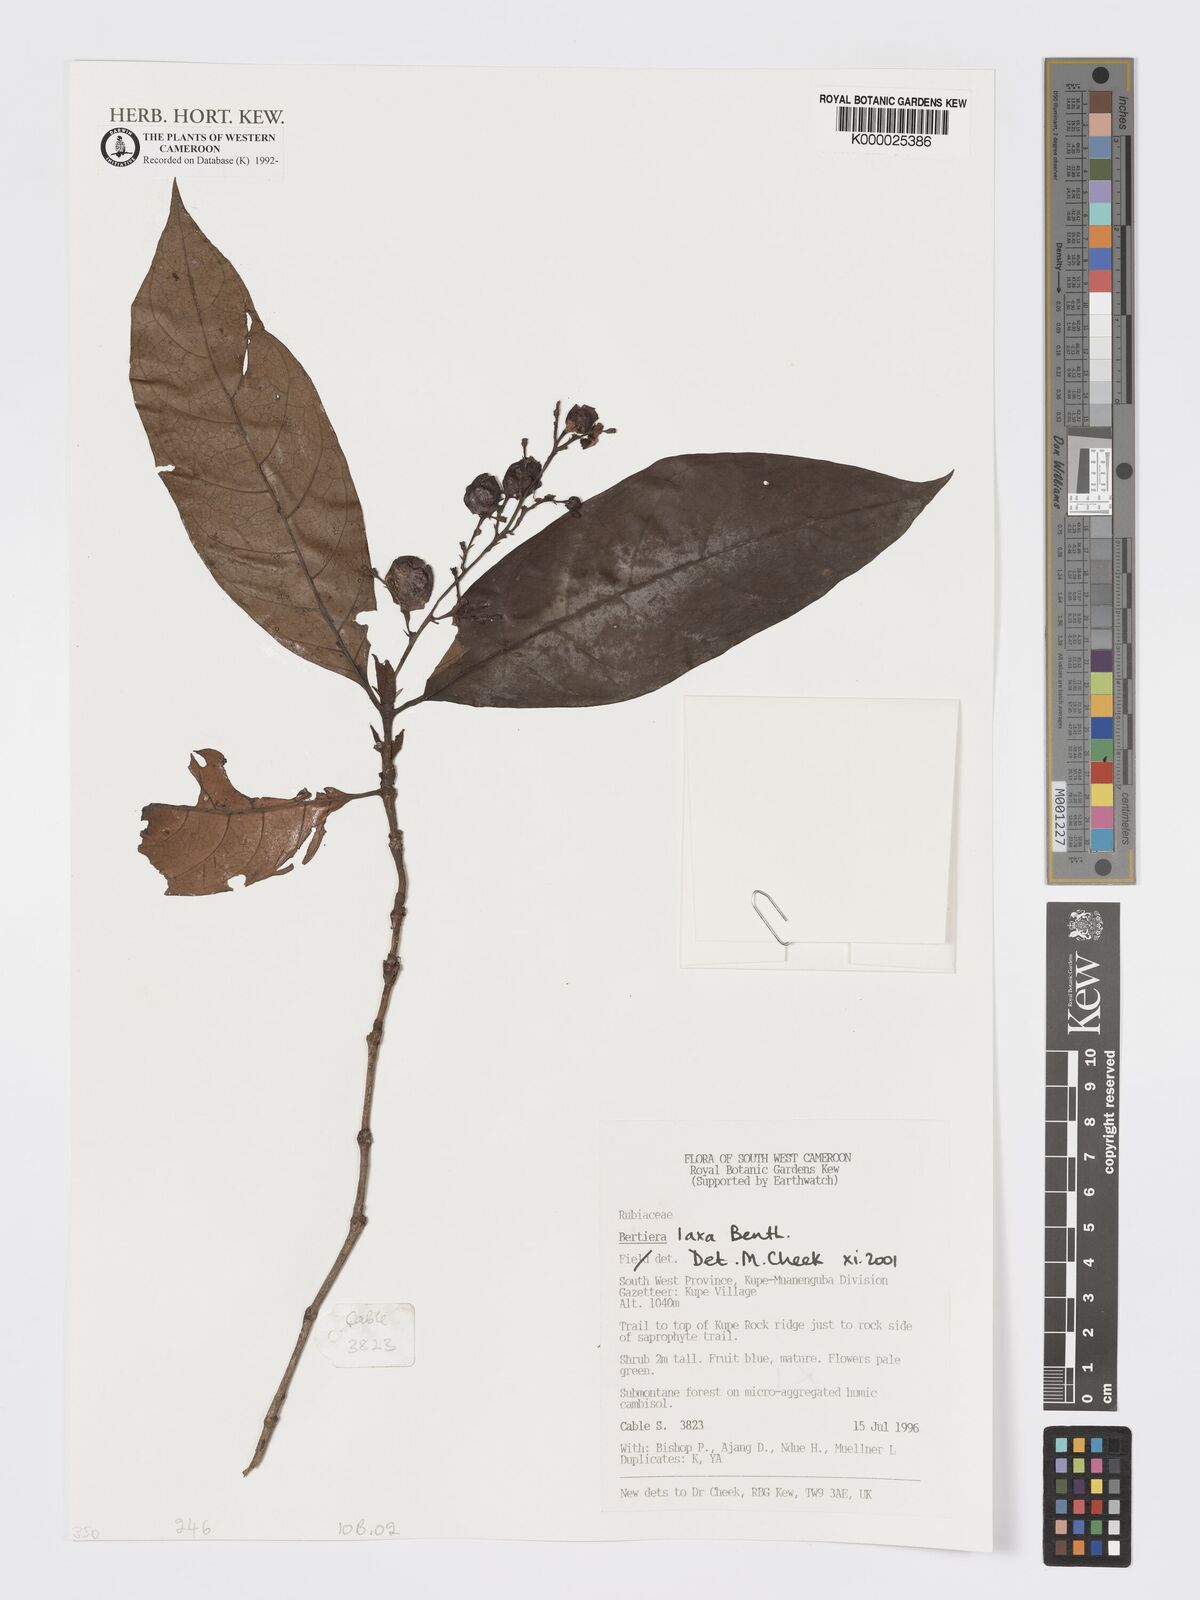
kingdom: Plantae
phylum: Tracheophyta
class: Magnoliopsida
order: Gentianales
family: Rubiaceae
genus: Bertiera
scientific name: Bertiera laxa
